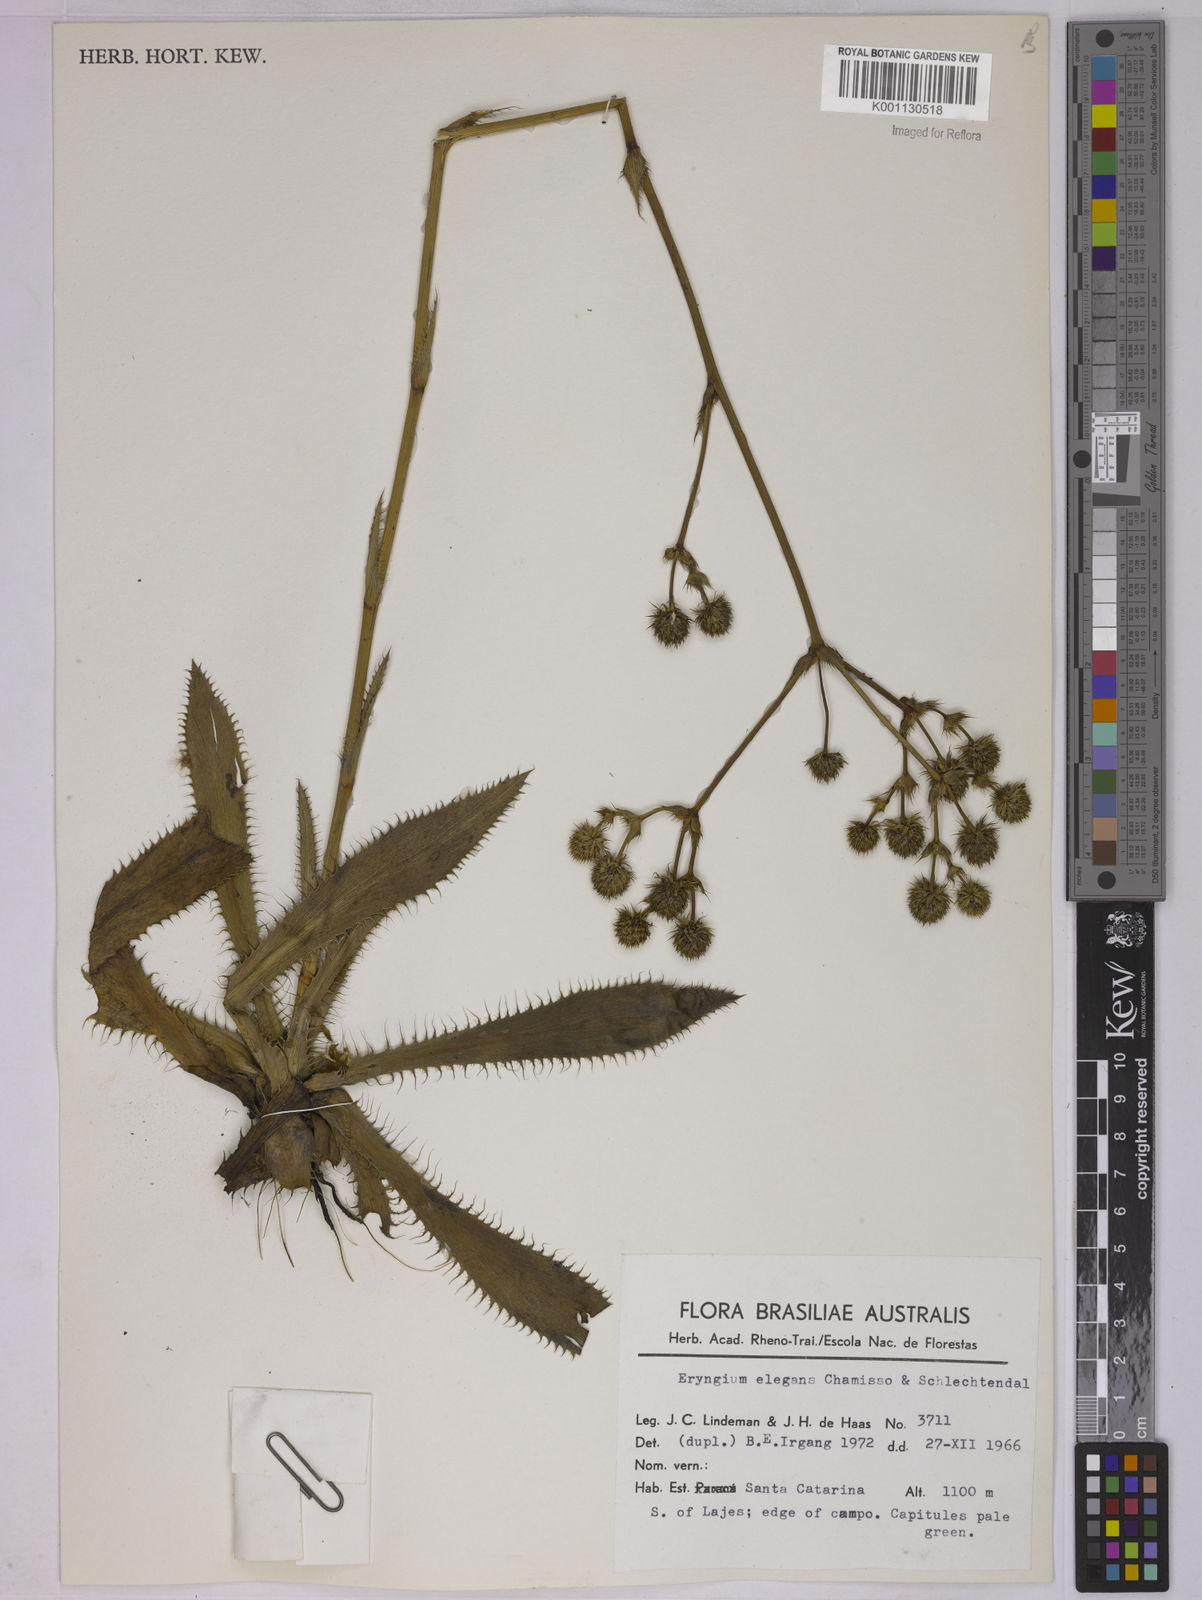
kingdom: Plantae
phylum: Tracheophyta
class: Magnoliopsida
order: Apiales
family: Apiaceae
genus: Eryngium
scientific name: Eryngium elegans
